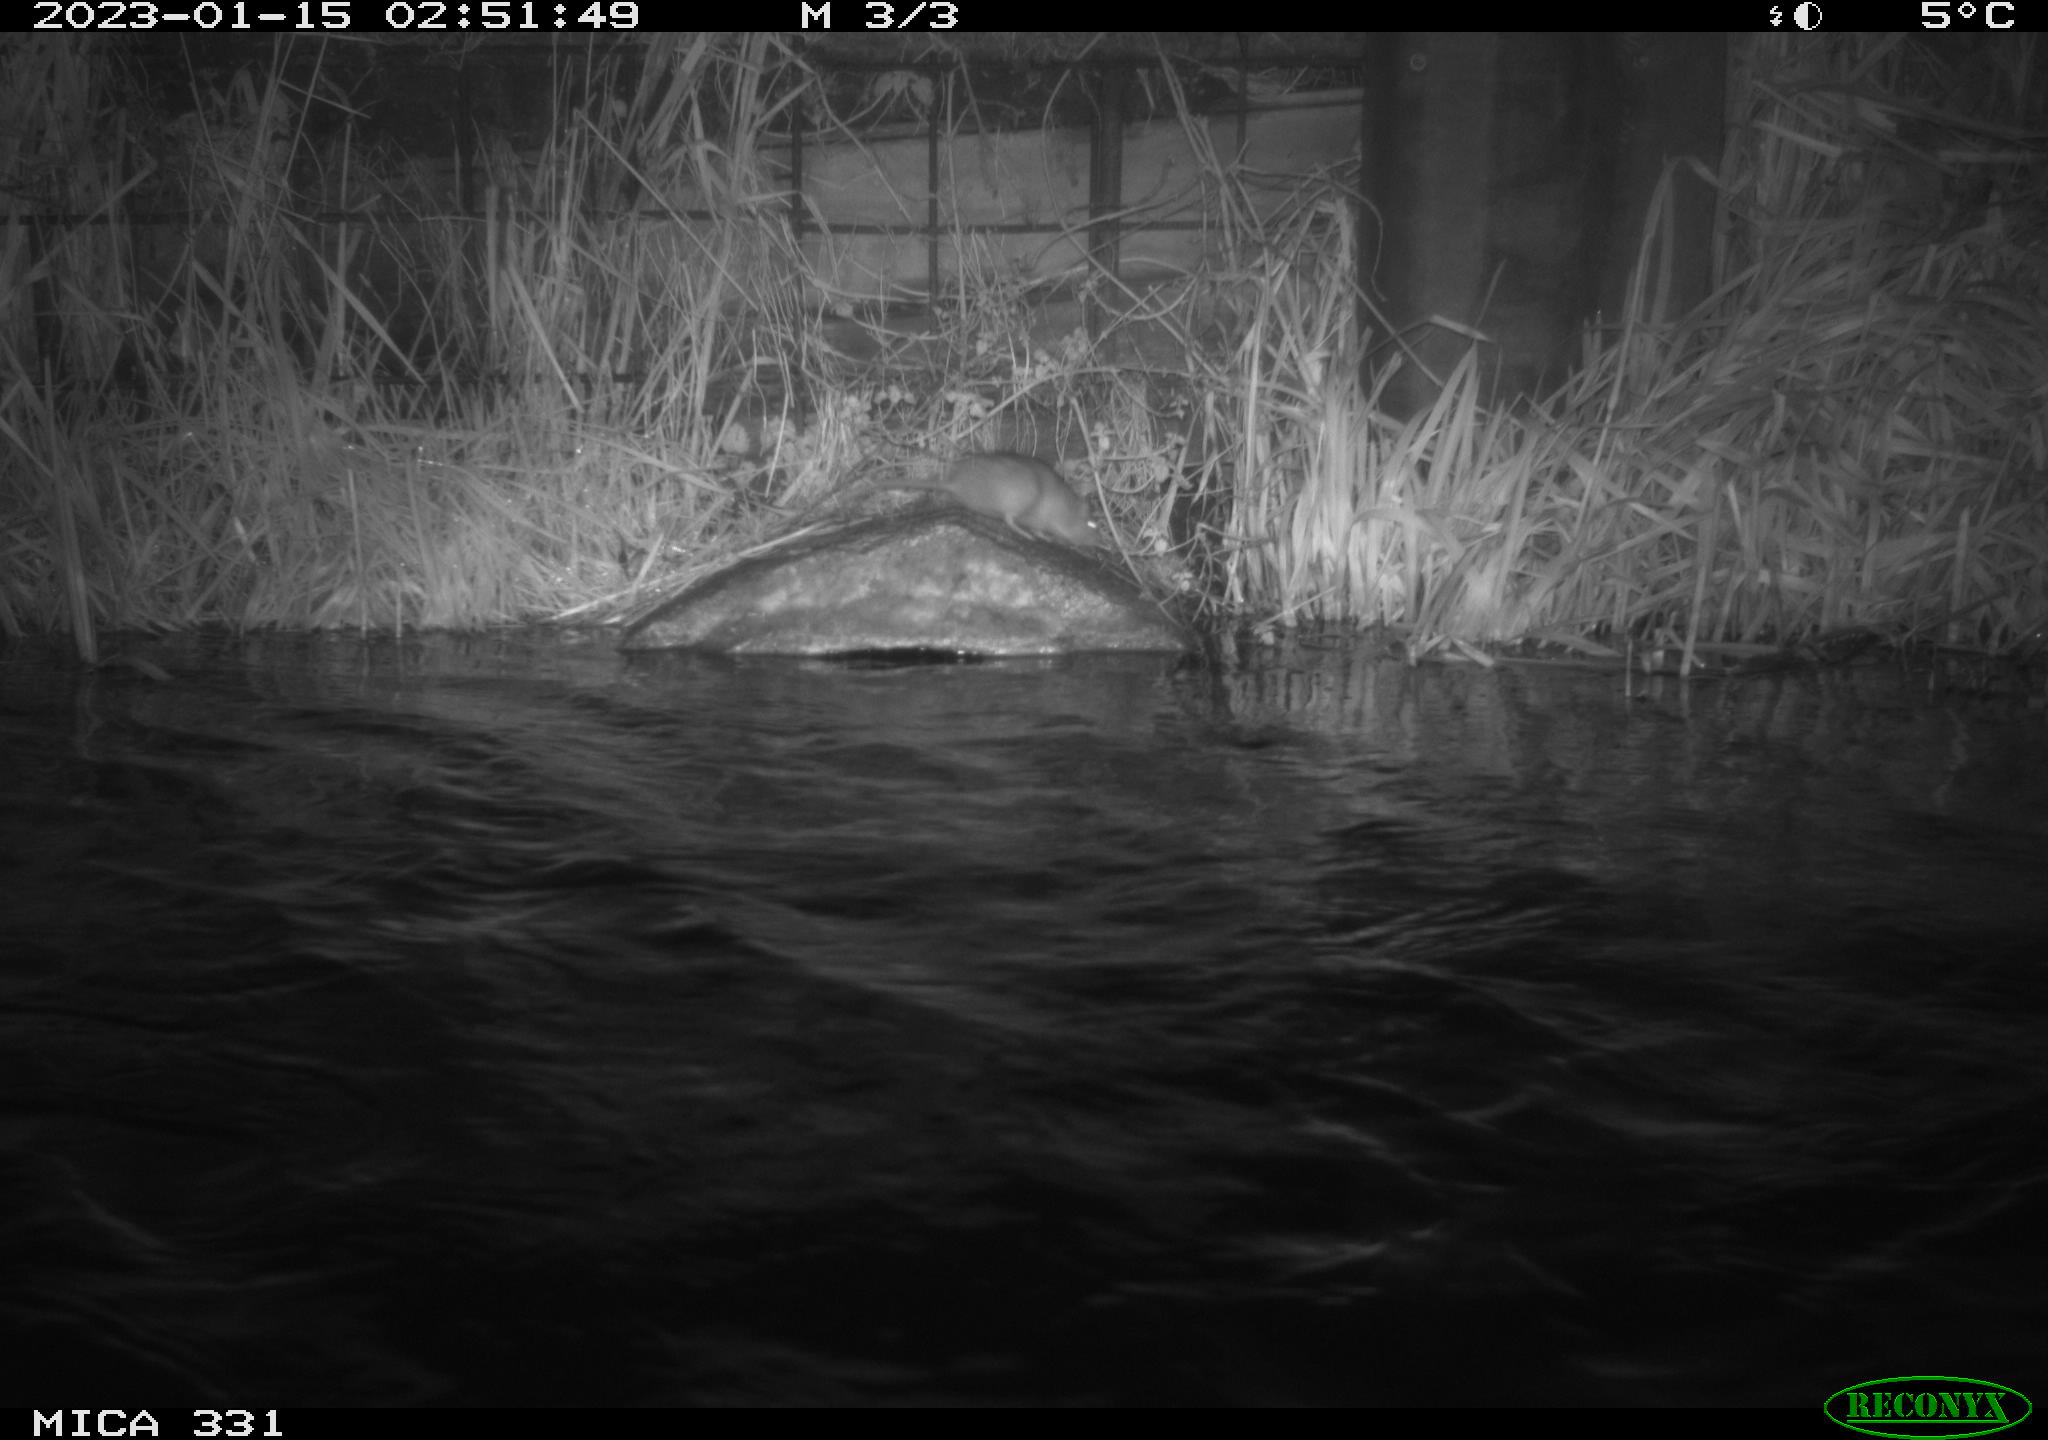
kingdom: Animalia
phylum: Chordata
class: Mammalia
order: Rodentia
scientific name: Rodentia
